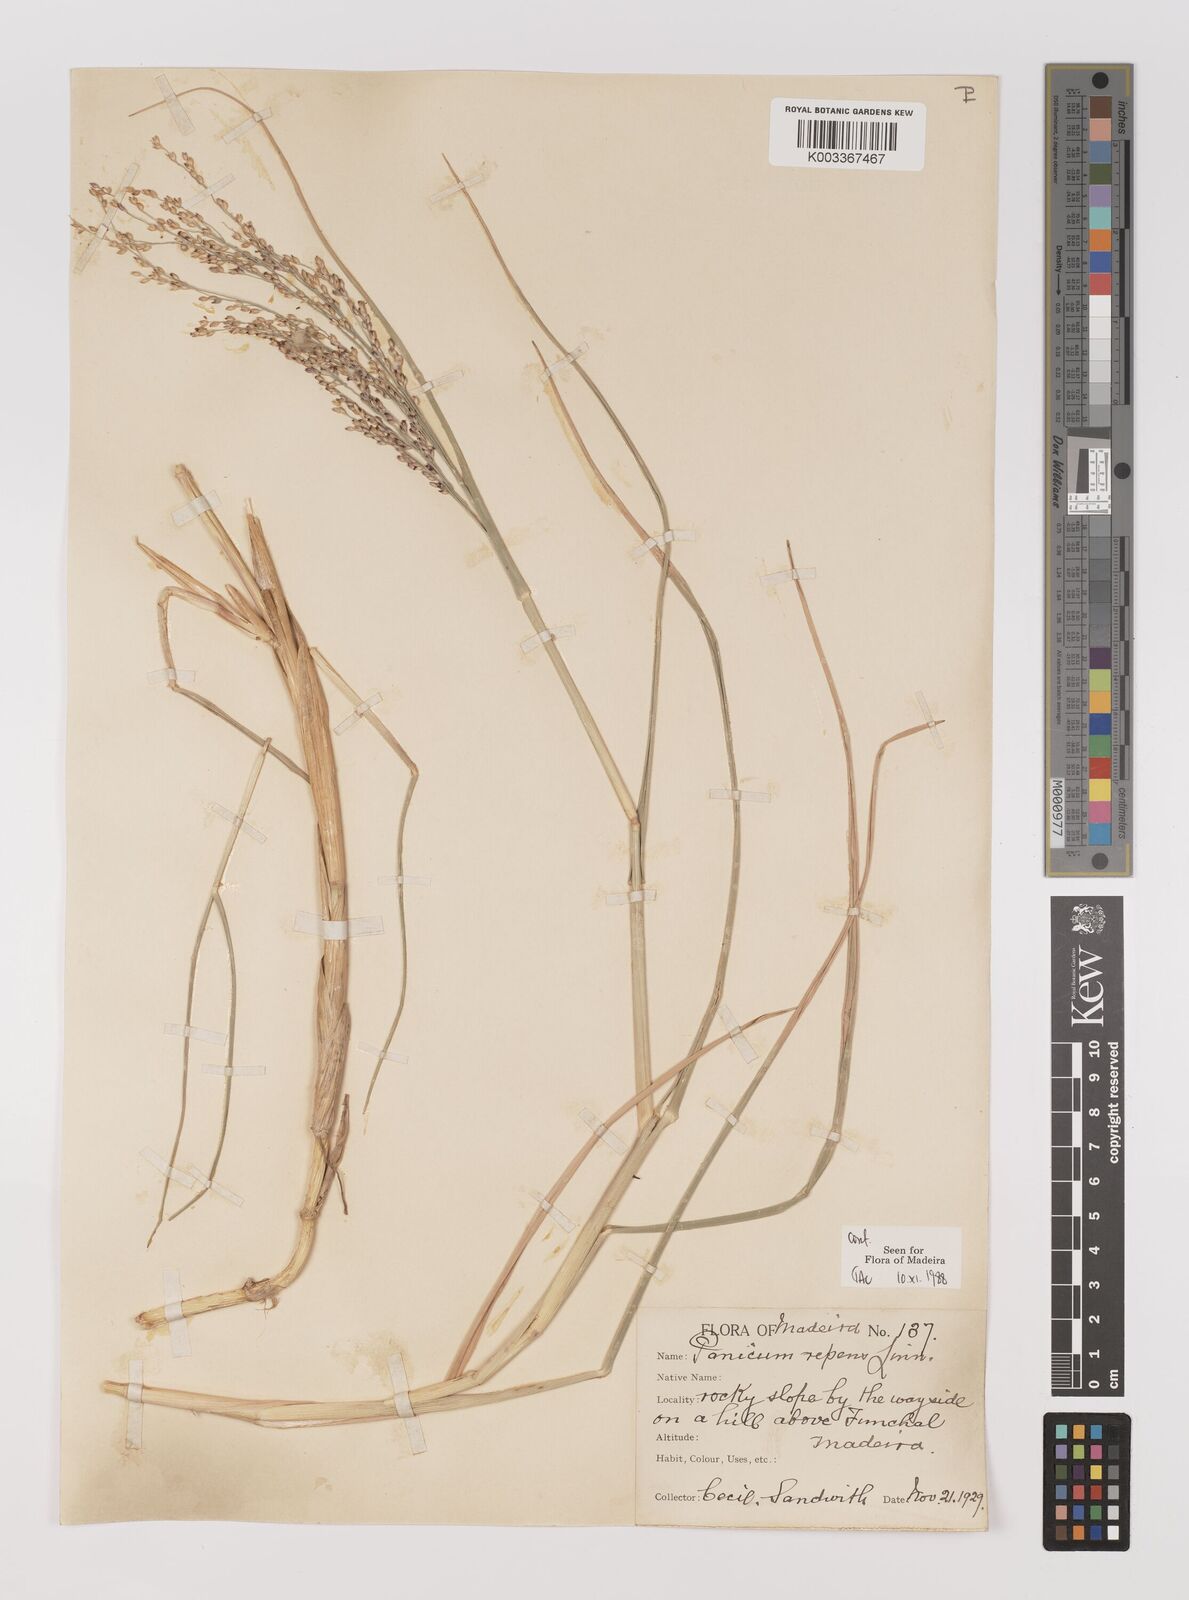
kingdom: Plantae
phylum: Tracheophyta
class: Liliopsida
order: Poales
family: Poaceae
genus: Panicum
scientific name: Panicum repens
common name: Torpedo grass
